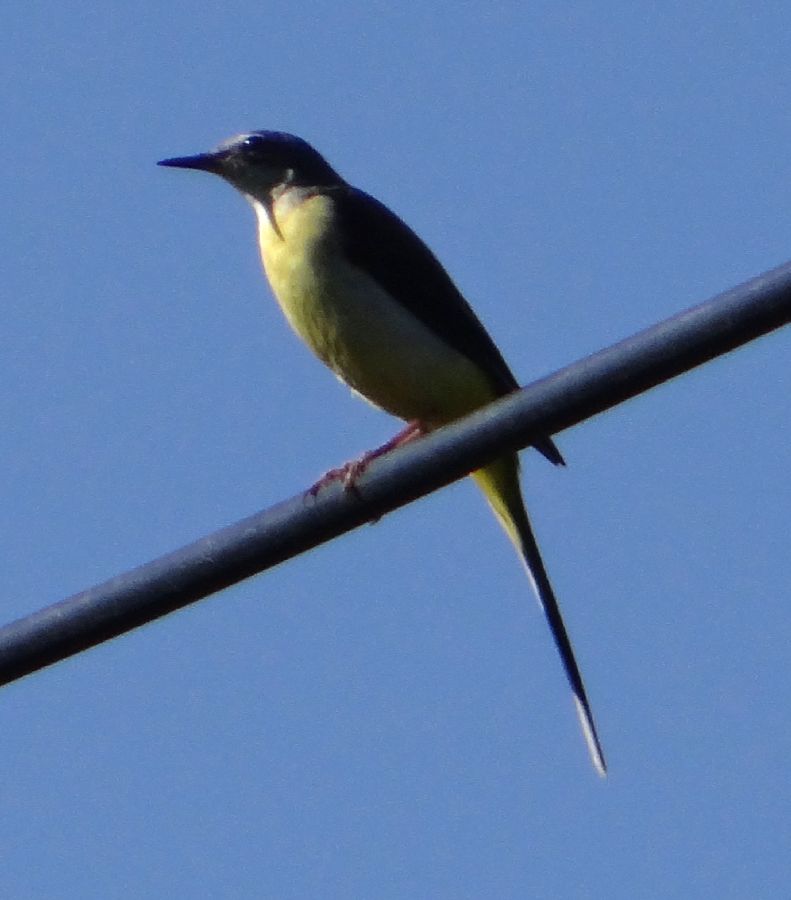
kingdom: Animalia
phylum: Chordata
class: Aves
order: Passeriformes
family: Motacillidae
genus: Motacilla
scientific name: Motacilla cinerea
